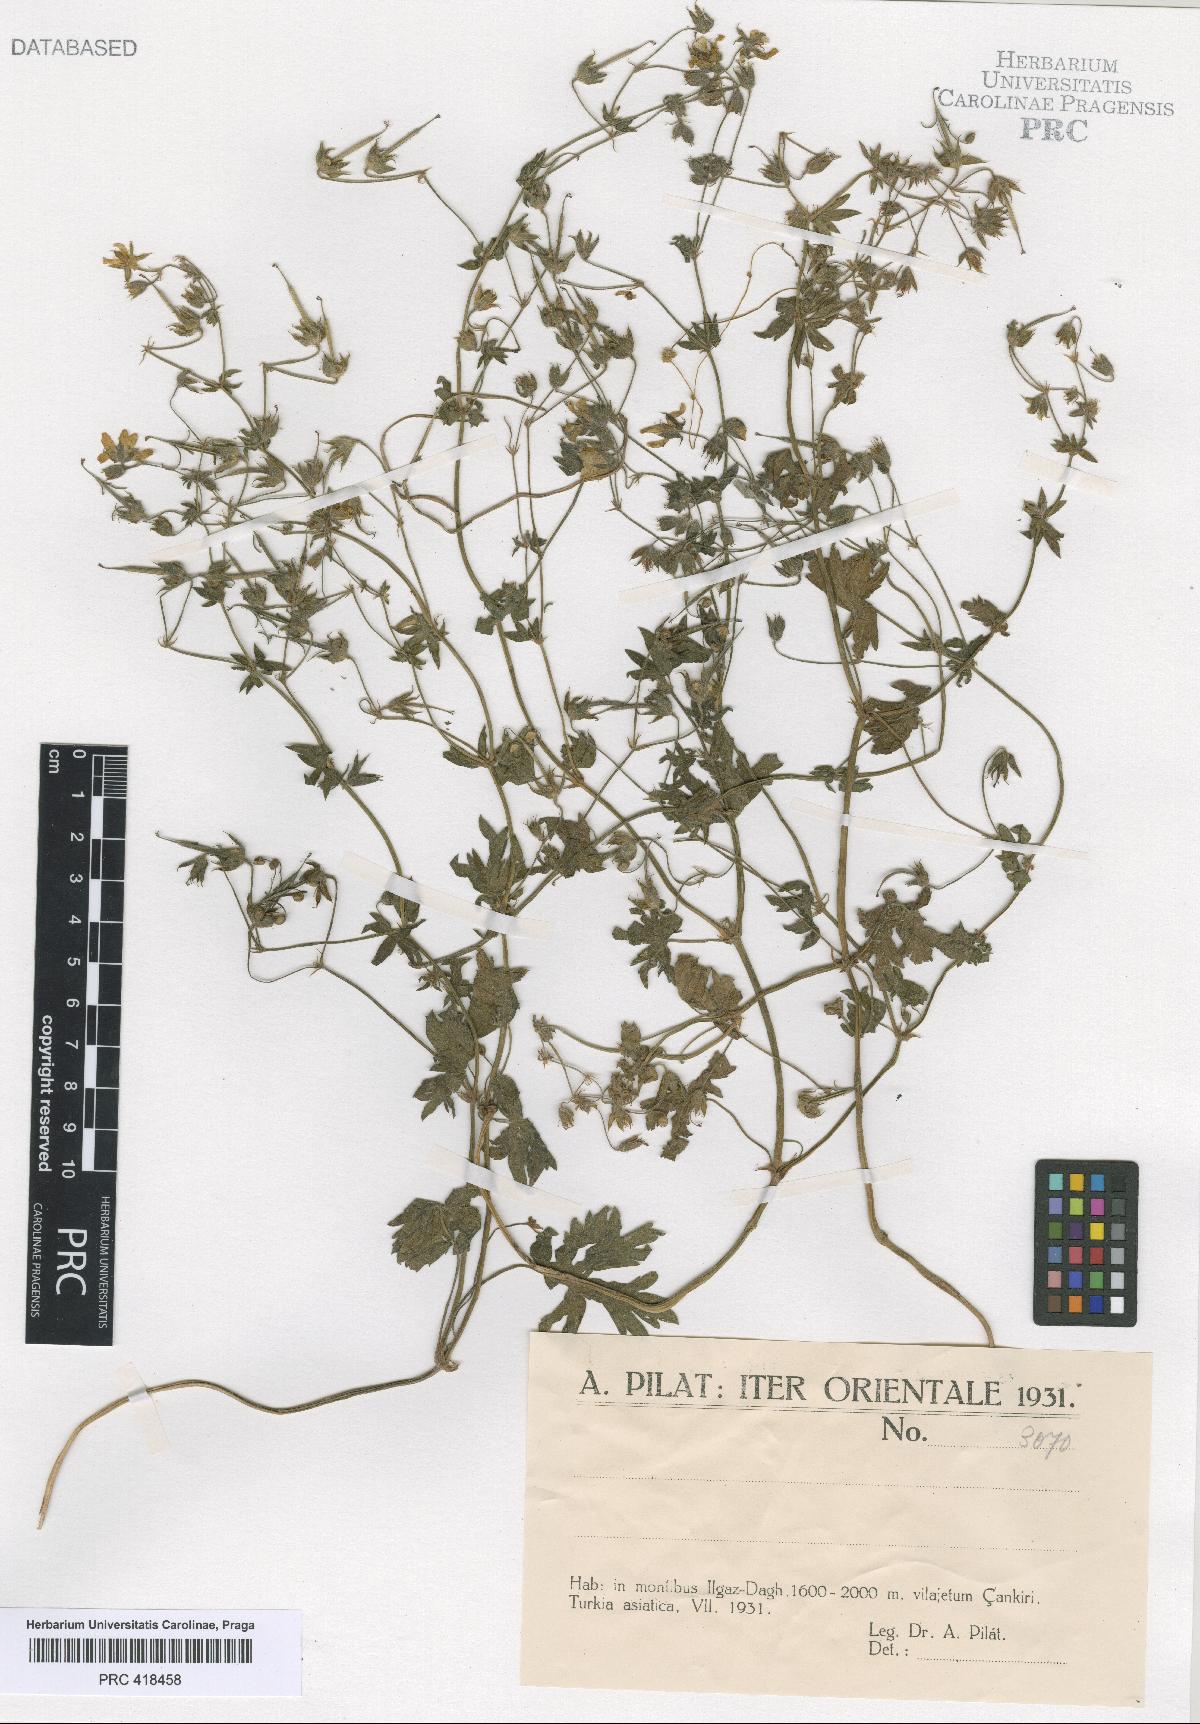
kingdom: Plantae
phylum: Tracheophyta
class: Magnoliopsida
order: Geraniales
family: Geraniaceae
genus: Geranium
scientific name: Geranium asphodeloides
